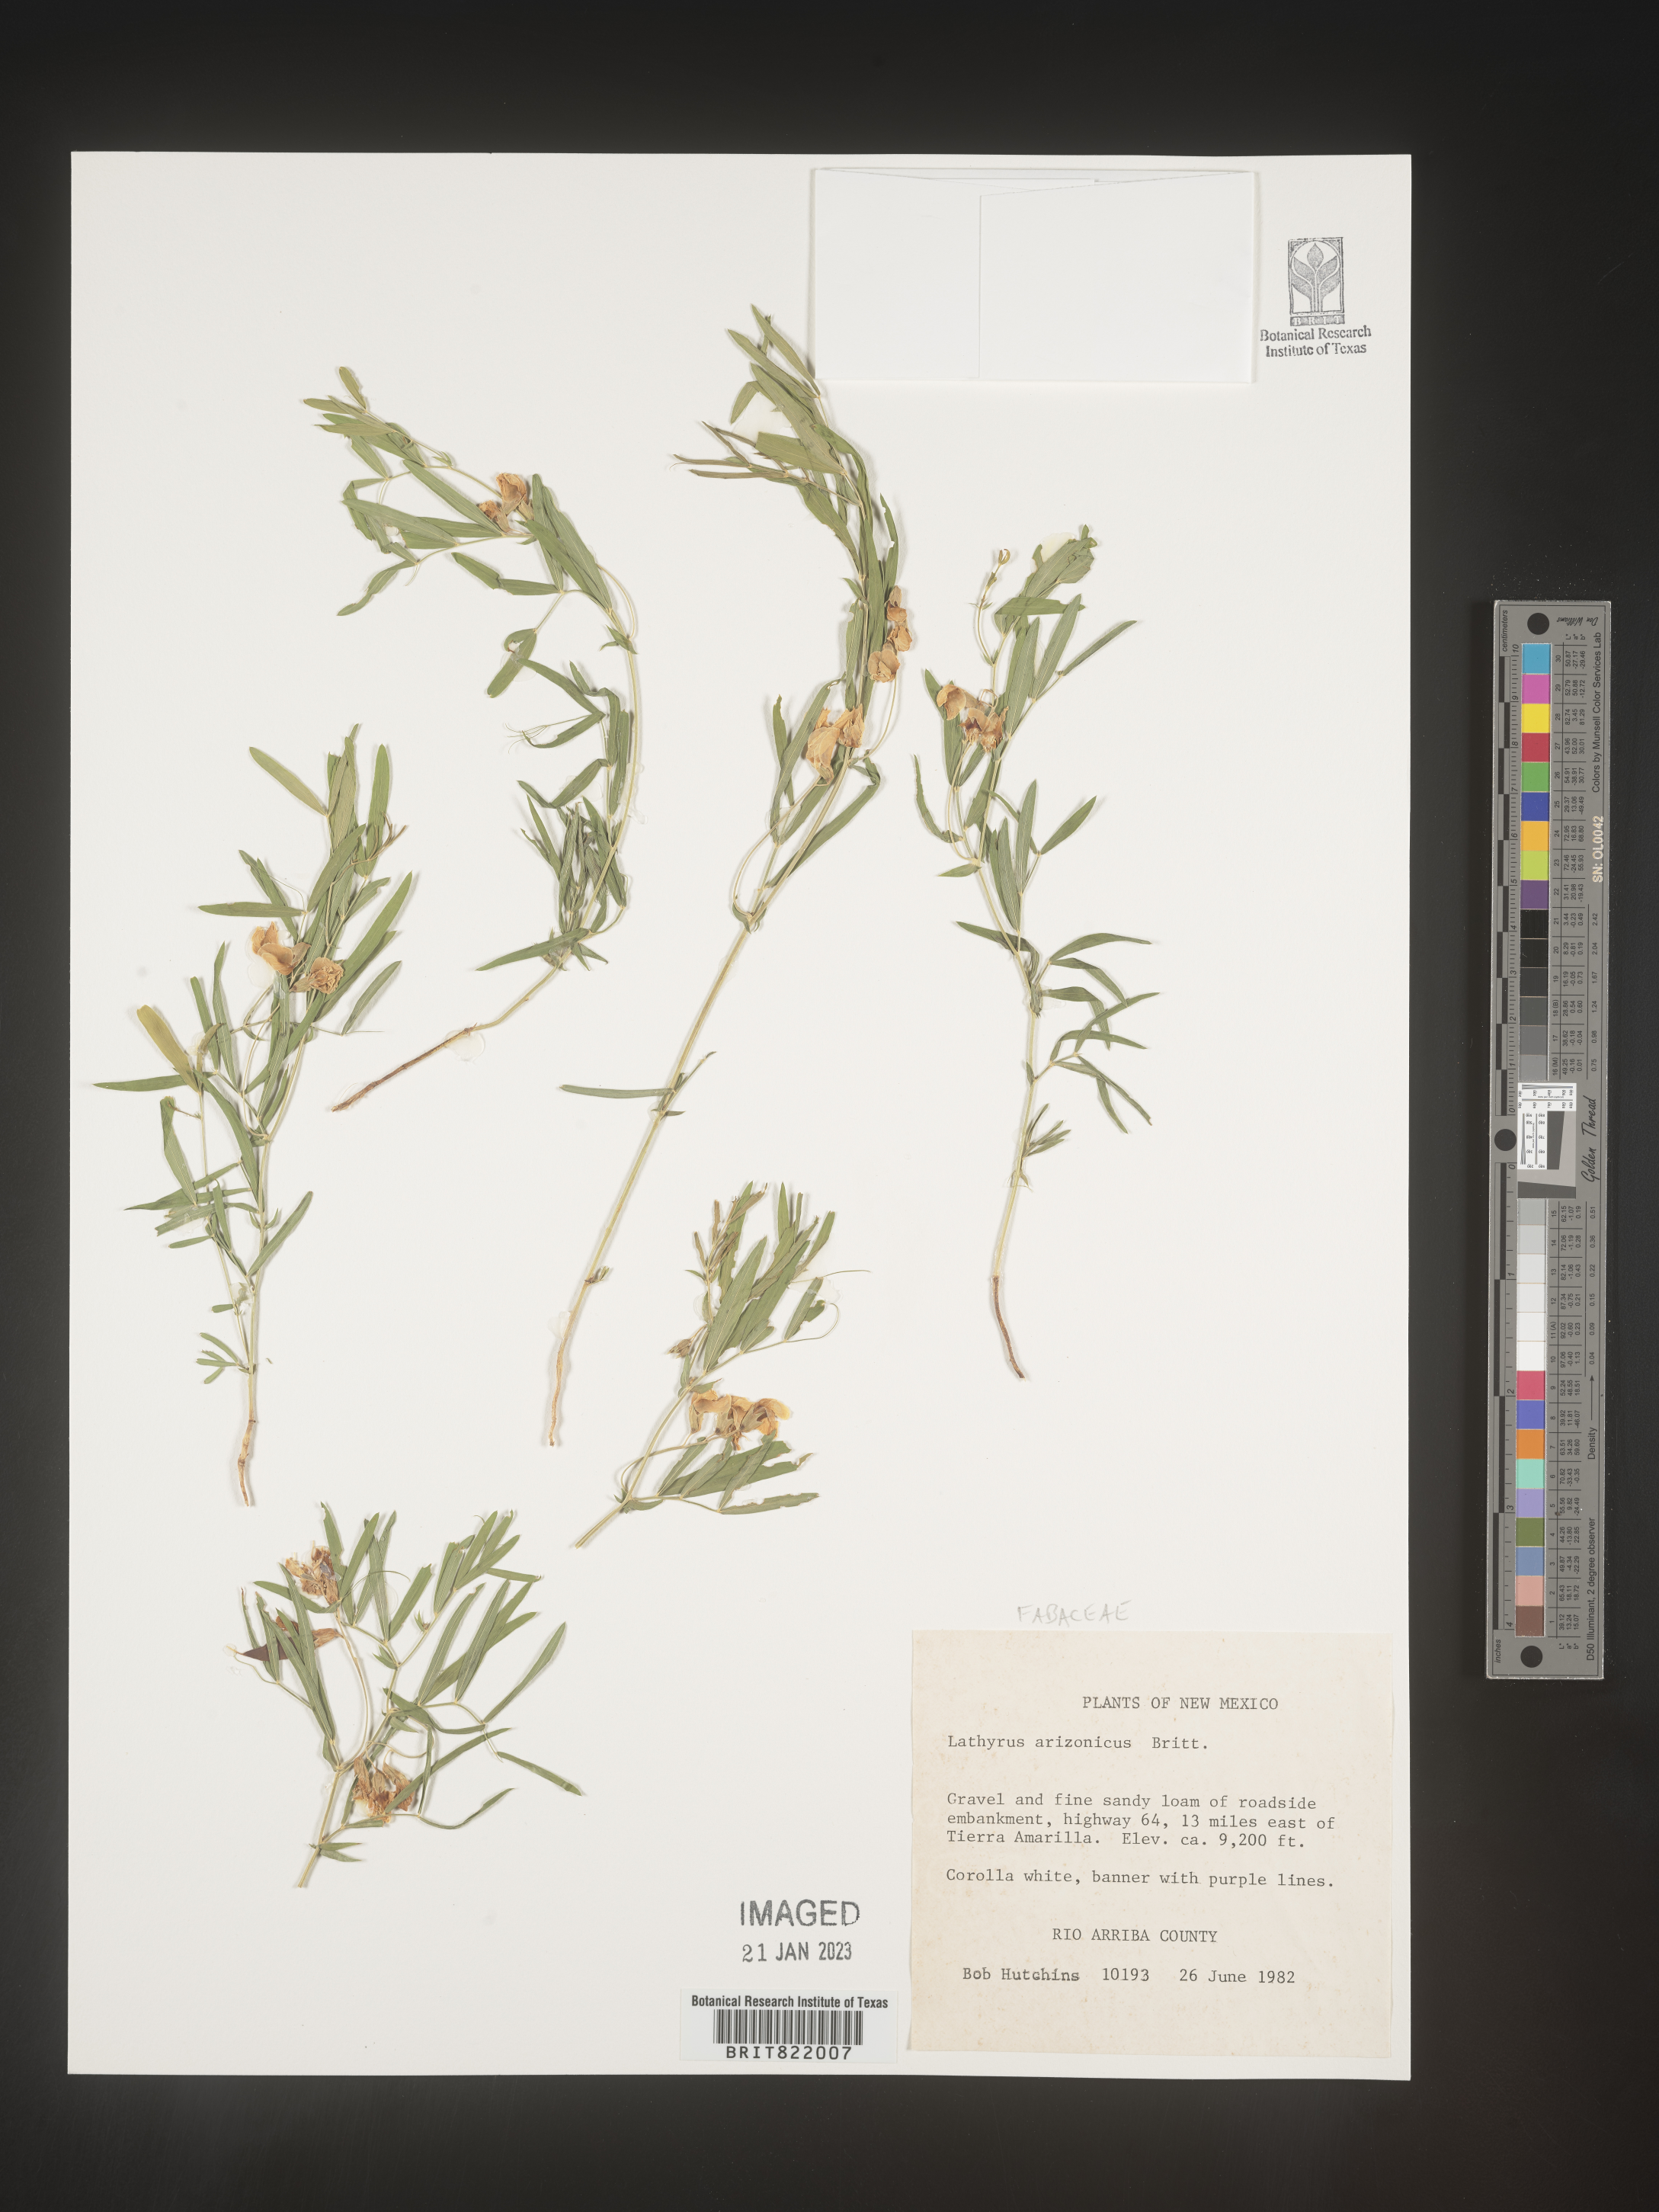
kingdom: Plantae
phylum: Tracheophyta
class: Magnoliopsida
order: Fabales
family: Fabaceae
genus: Lathyrus
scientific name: Lathyrus
